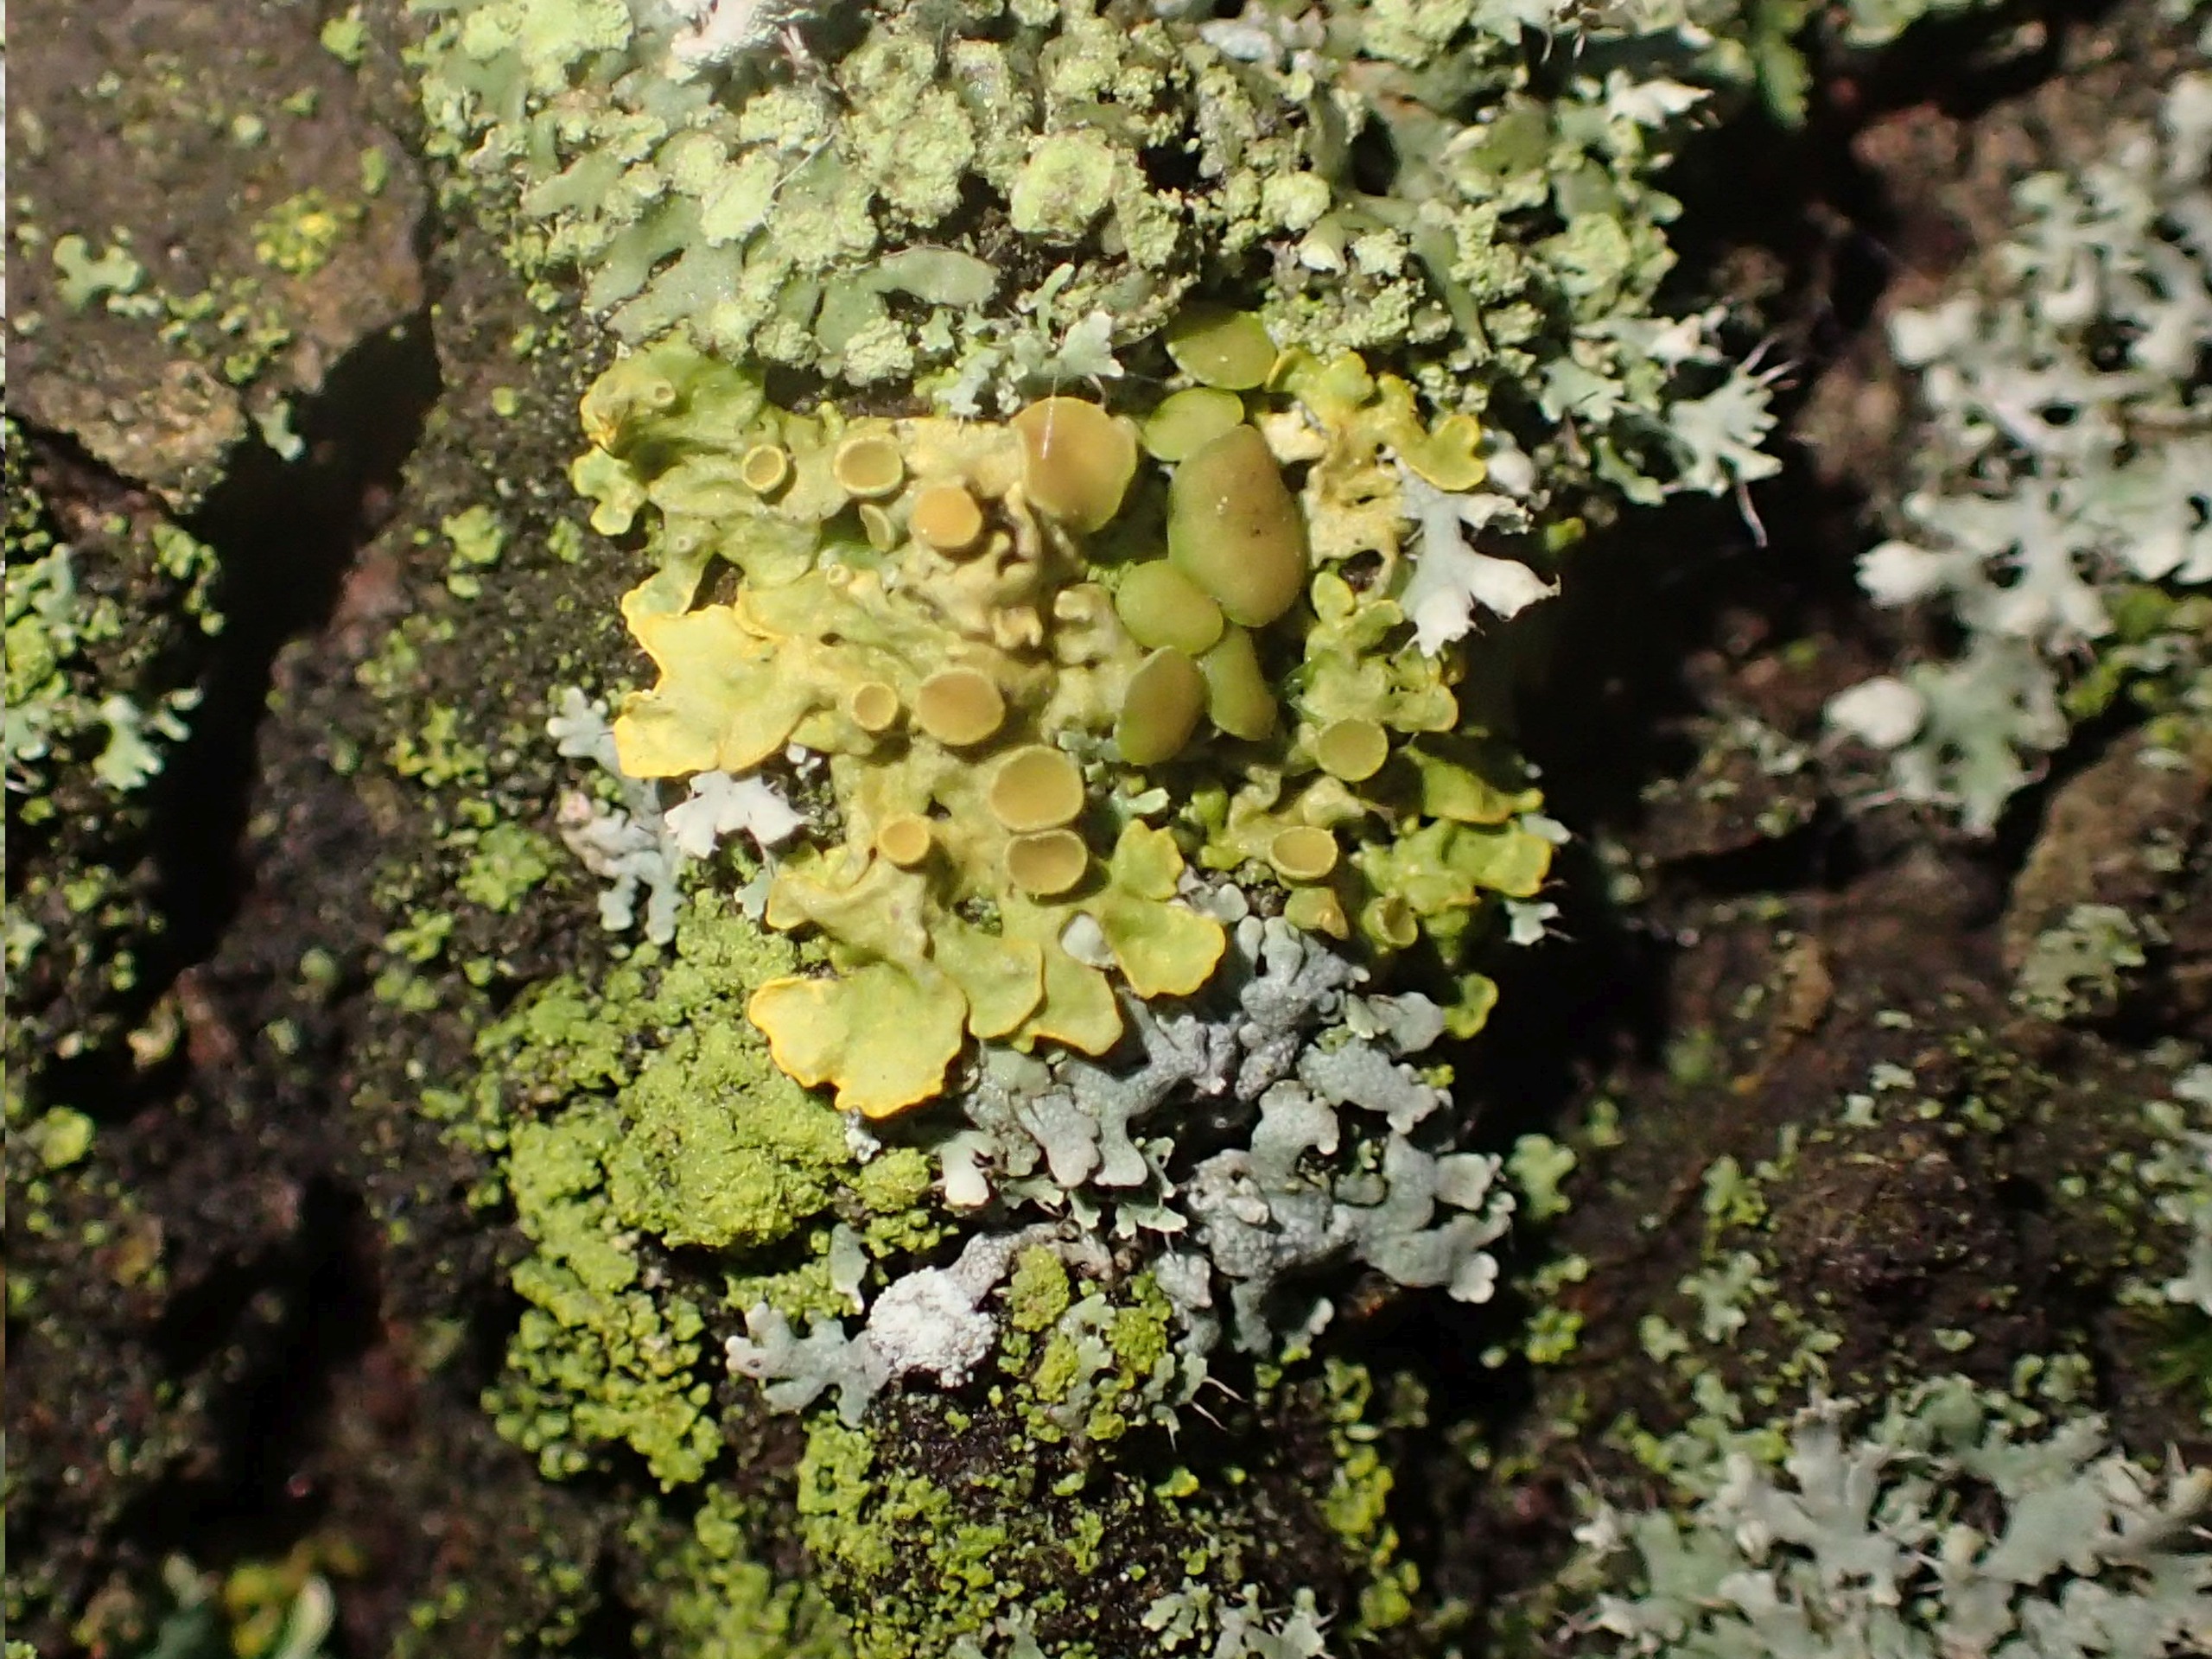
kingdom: Fungi
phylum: Ascomycota
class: Lecanoromycetes
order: Teloschistales
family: Teloschistaceae
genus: Xanthoria
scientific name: Xanthoria parietina
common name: Almindelig væggelav
